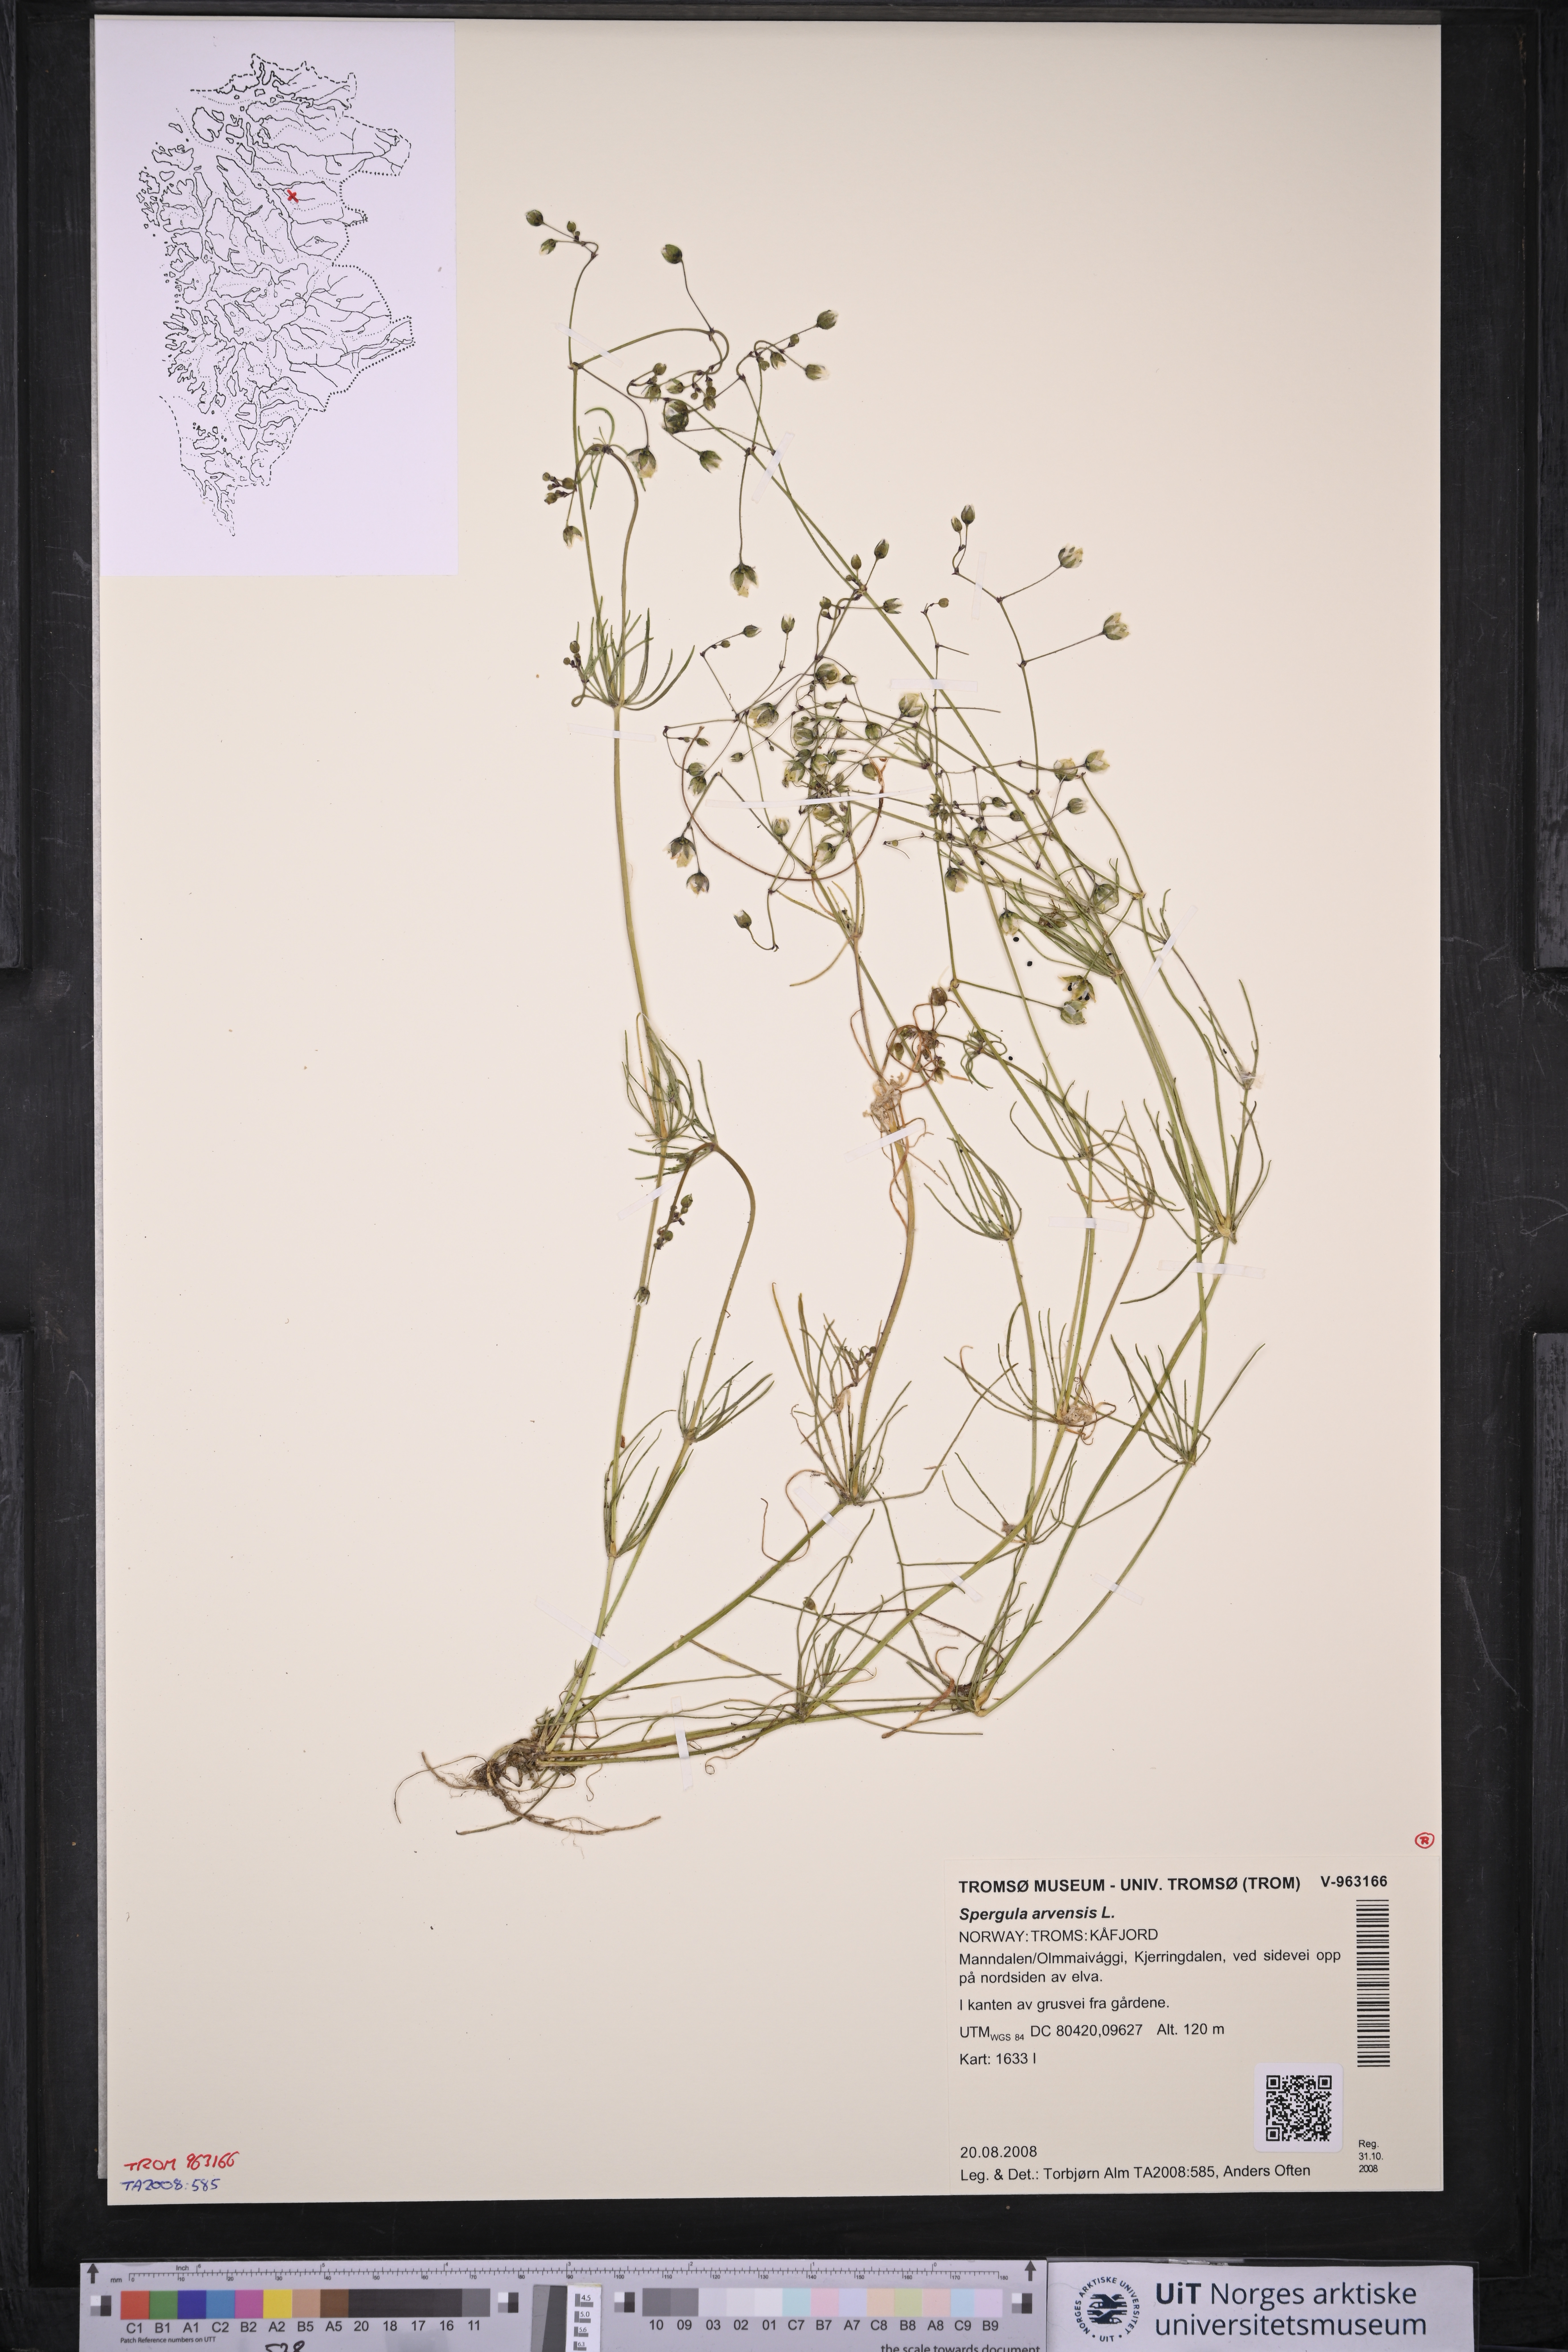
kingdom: Plantae
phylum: Tracheophyta
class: Magnoliopsida
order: Caryophyllales
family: Caryophyllaceae
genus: Spergula
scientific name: Spergula arvensis
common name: Corn spurrey
